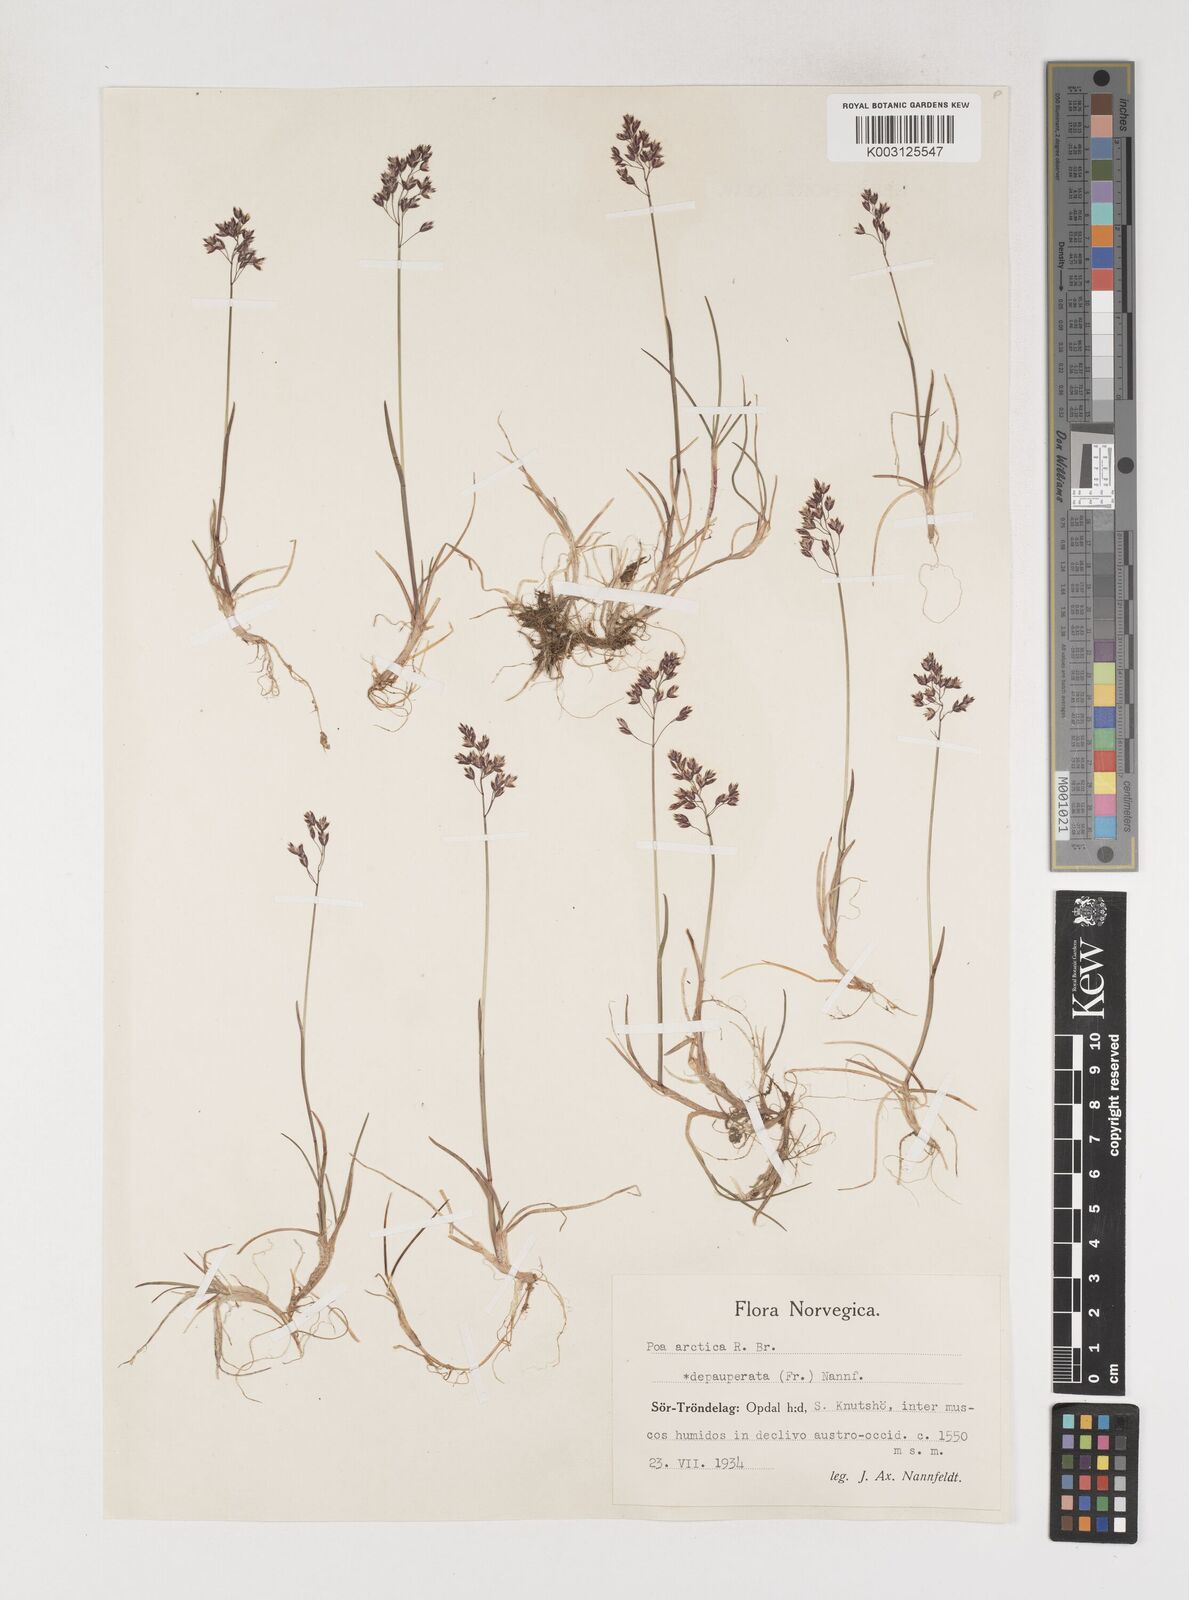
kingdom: Plantae
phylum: Tracheophyta
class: Liliopsida
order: Poales
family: Poaceae
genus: Poa
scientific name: Poa arctica
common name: Arctic bluegrass
